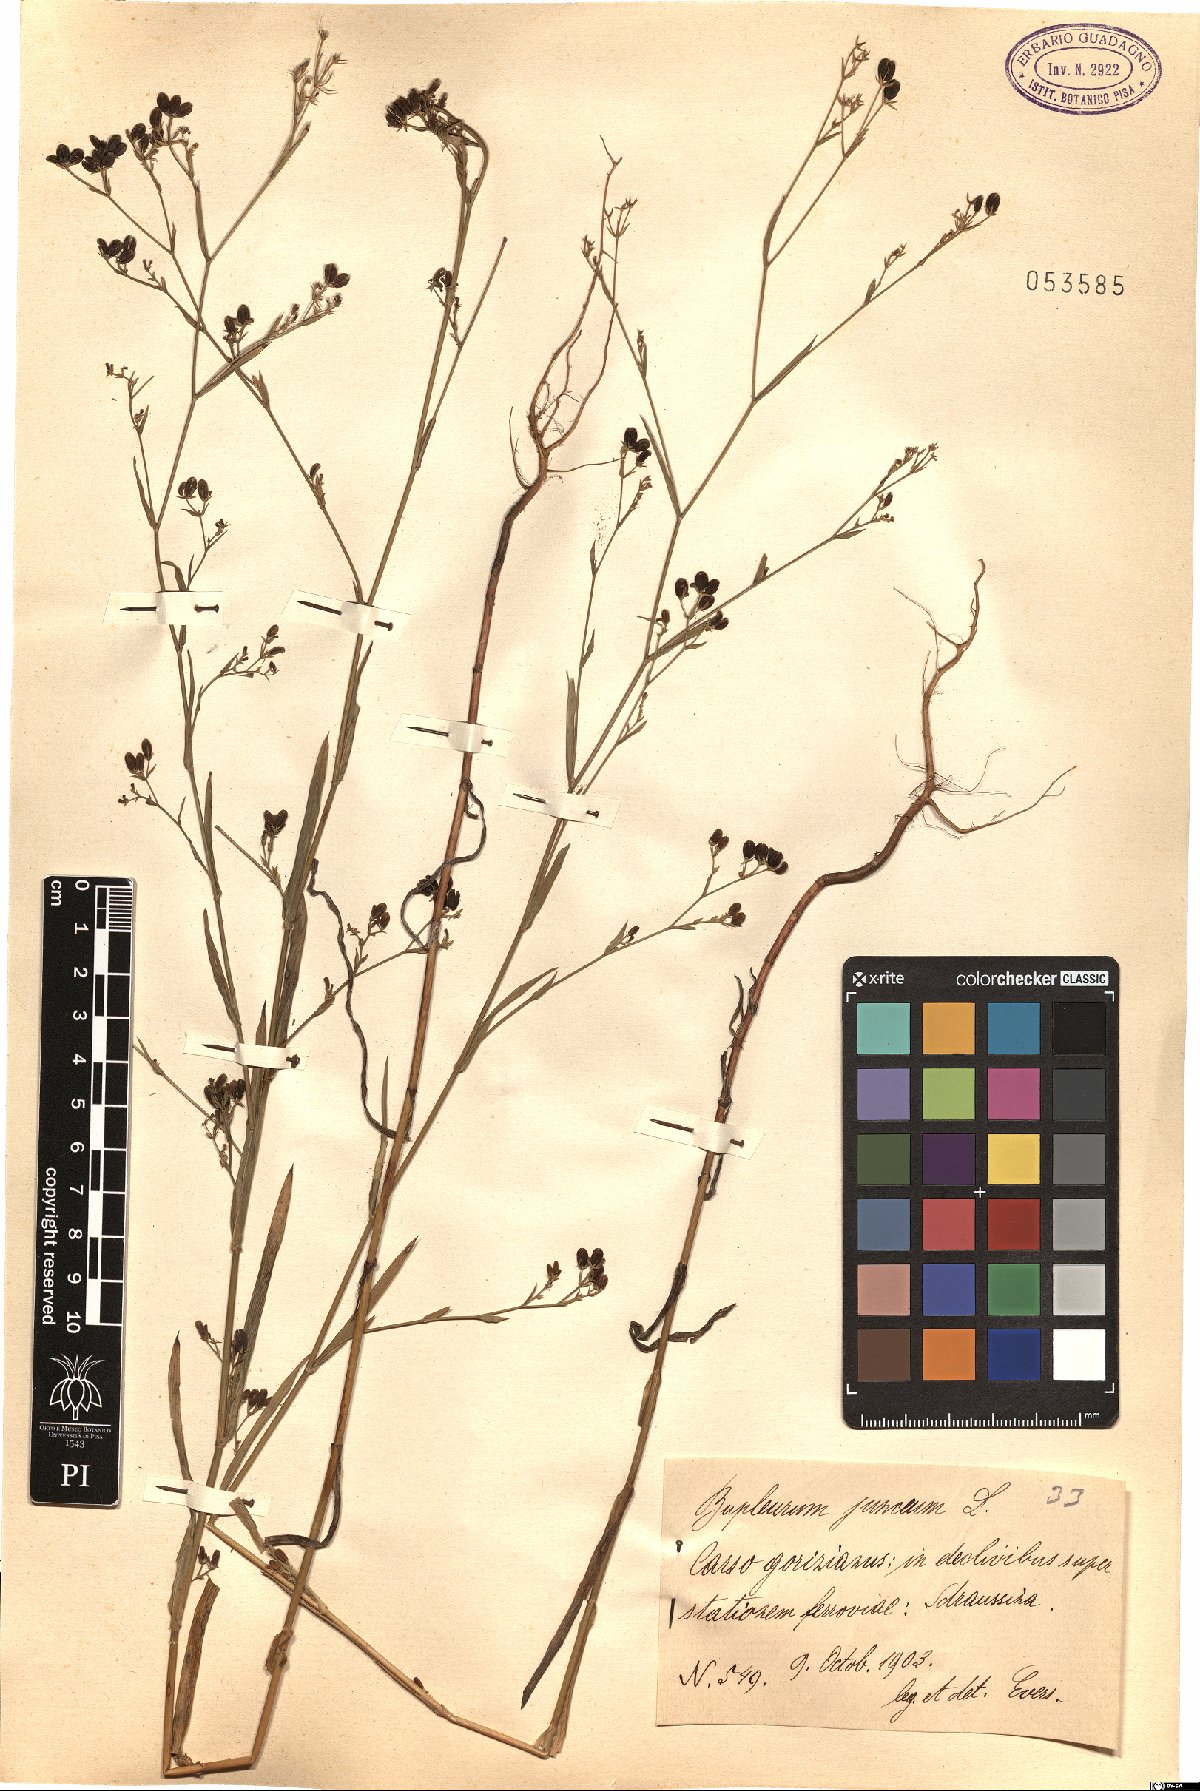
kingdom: Plantae
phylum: Tracheophyta
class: Magnoliopsida
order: Apiales
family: Apiaceae
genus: Bupleurum
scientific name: Bupleurum praealtum
